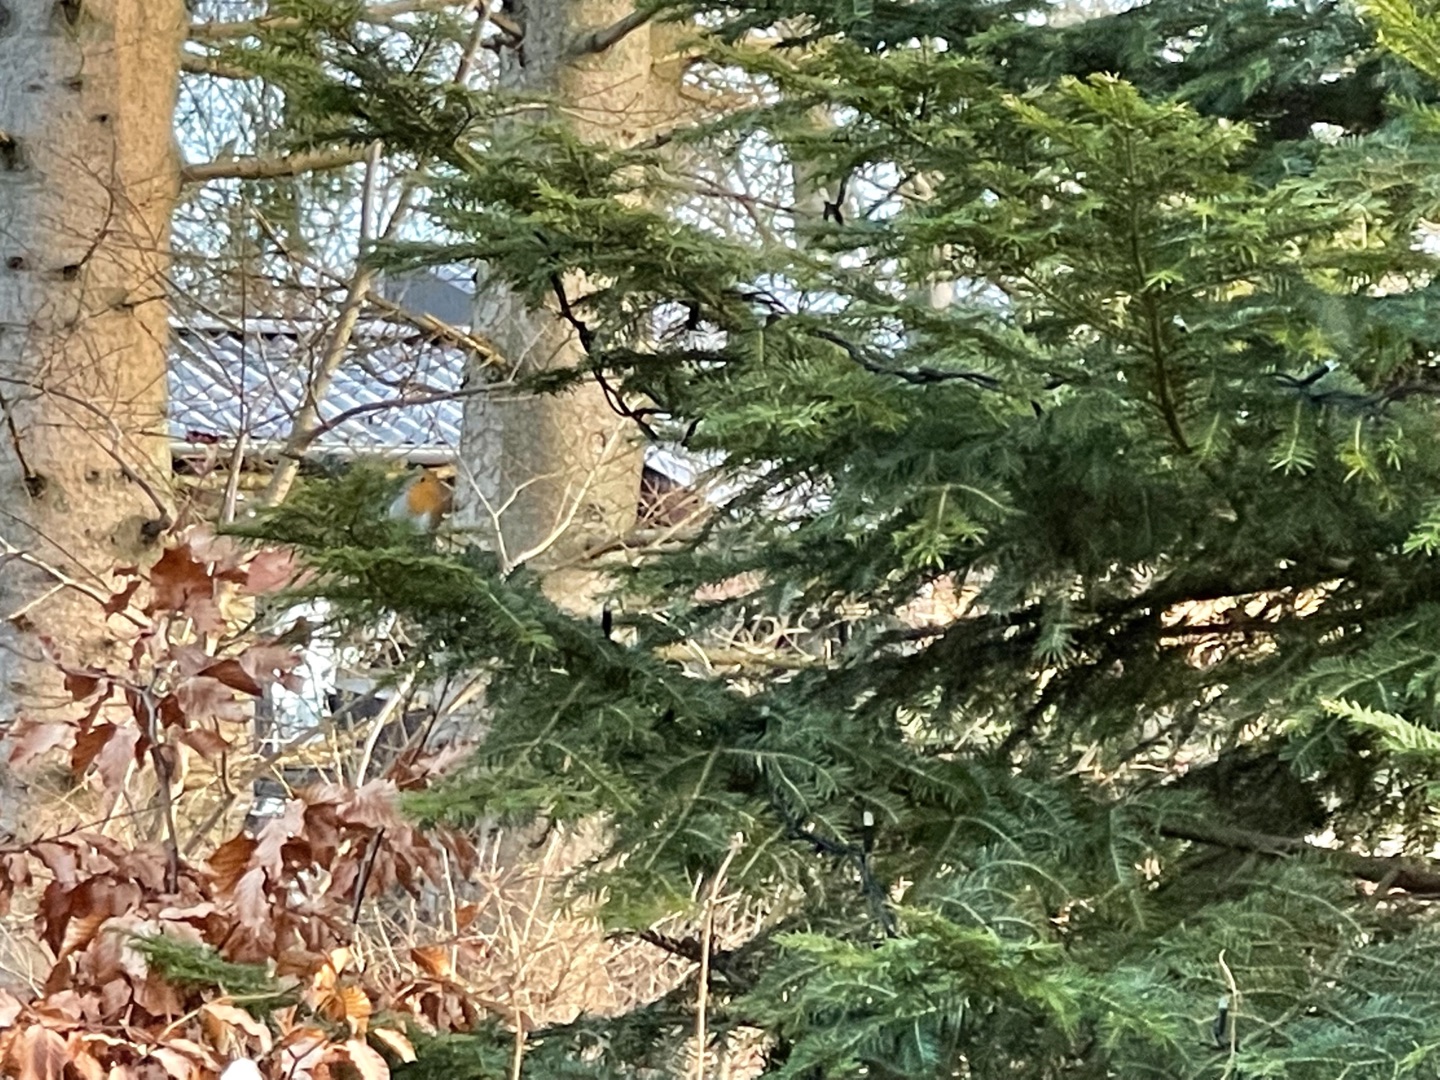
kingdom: Animalia
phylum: Chordata
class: Aves
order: Passeriformes
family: Muscicapidae
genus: Erithacus
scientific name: Erithacus rubecula
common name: Rødhals/rødkælk
